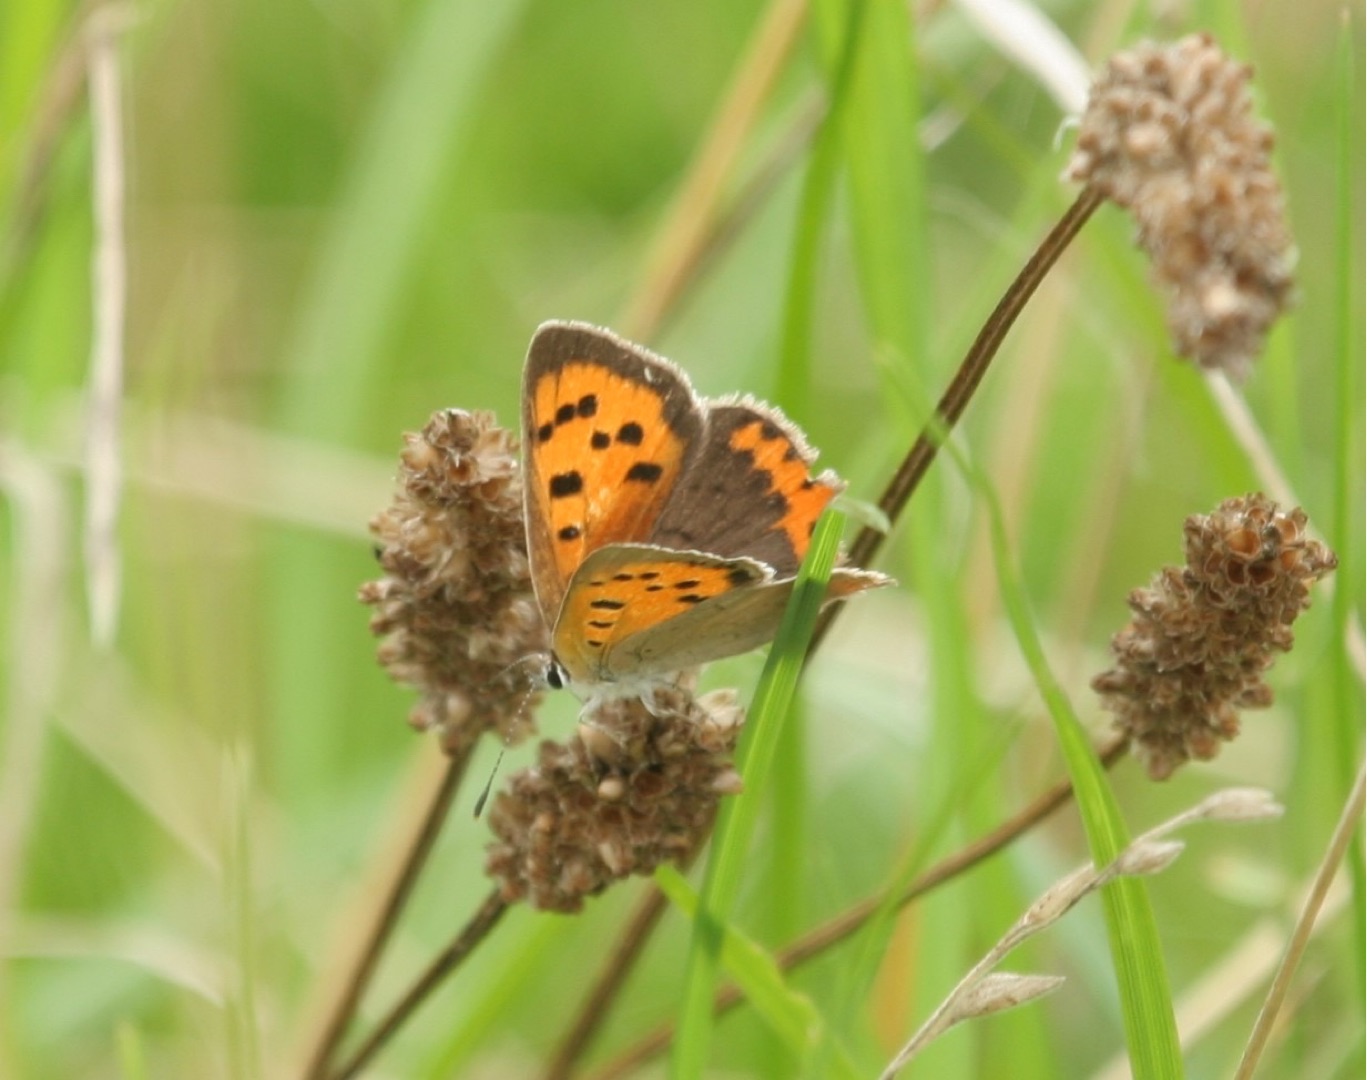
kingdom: Animalia
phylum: Arthropoda
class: Insecta
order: Lepidoptera
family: Lycaenidae
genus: Lycaena
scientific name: Lycaena phlaeas
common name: Lille ildfugl
